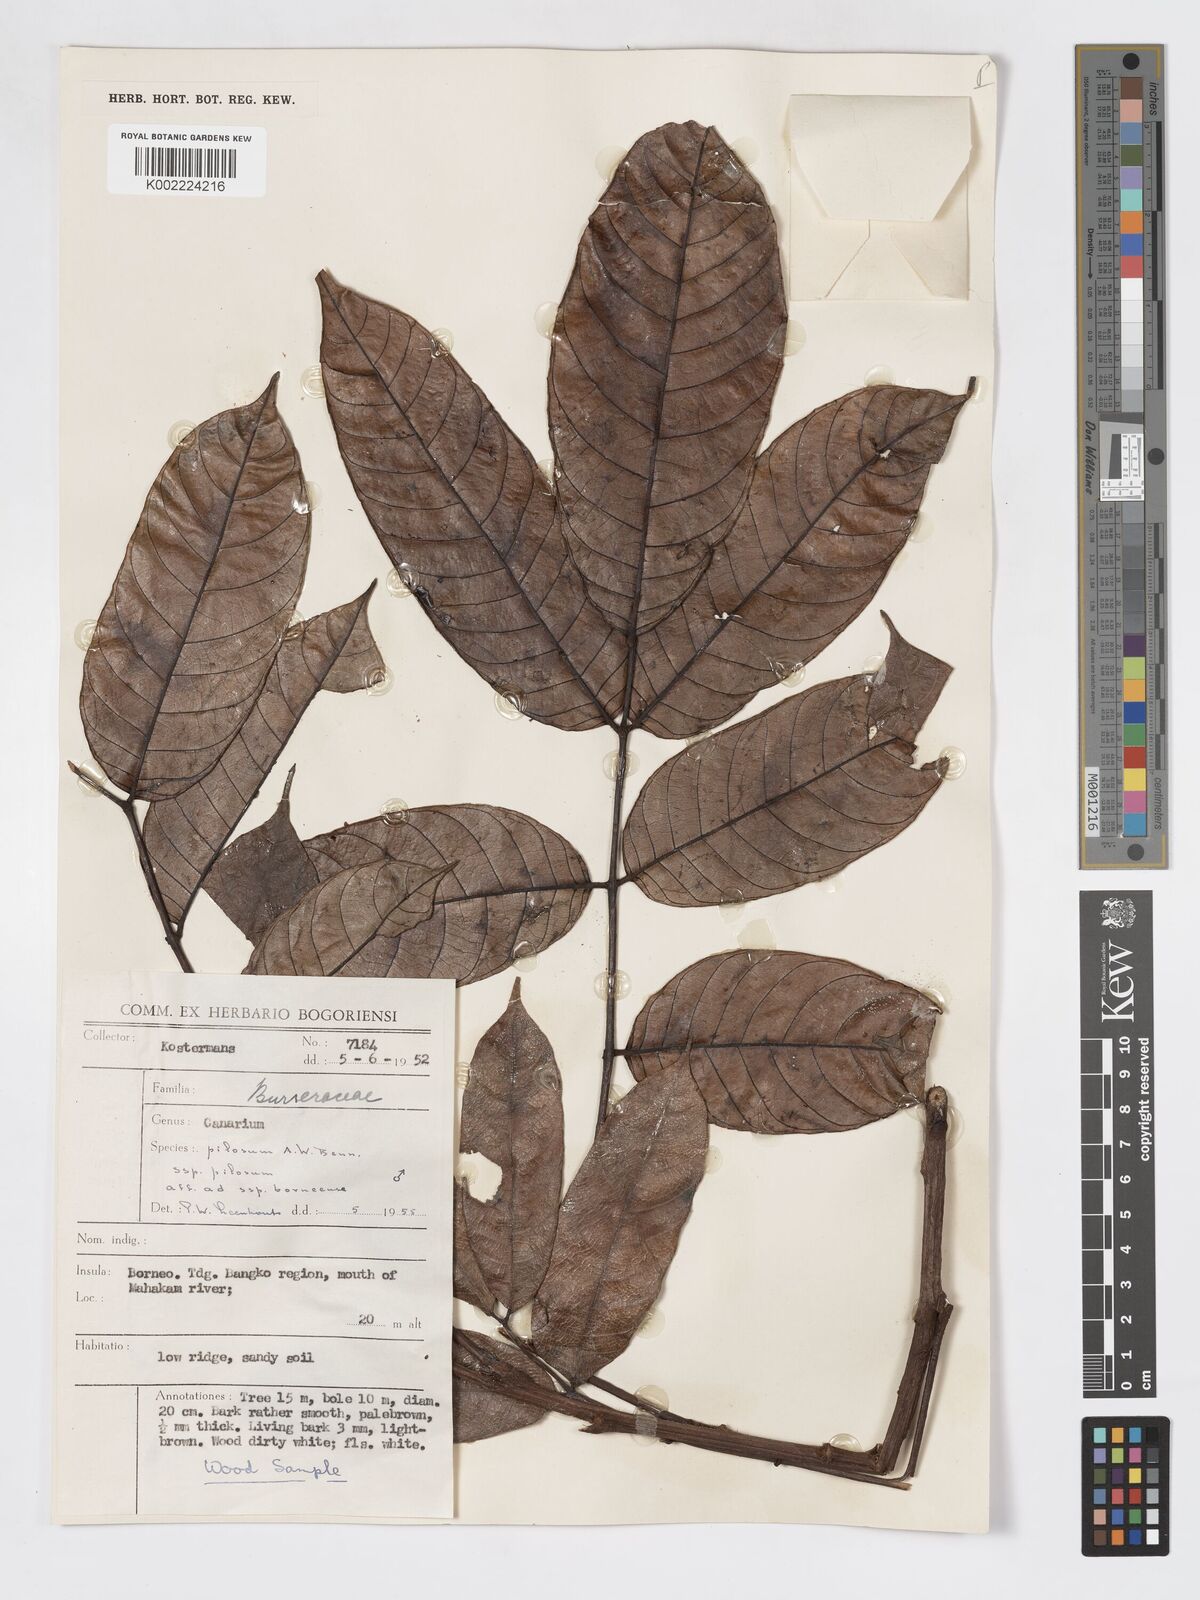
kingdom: Plantae
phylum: Tracheophyta
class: Magnoliopsida
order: Sapindales
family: Burseraceae
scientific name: Burseraceae
